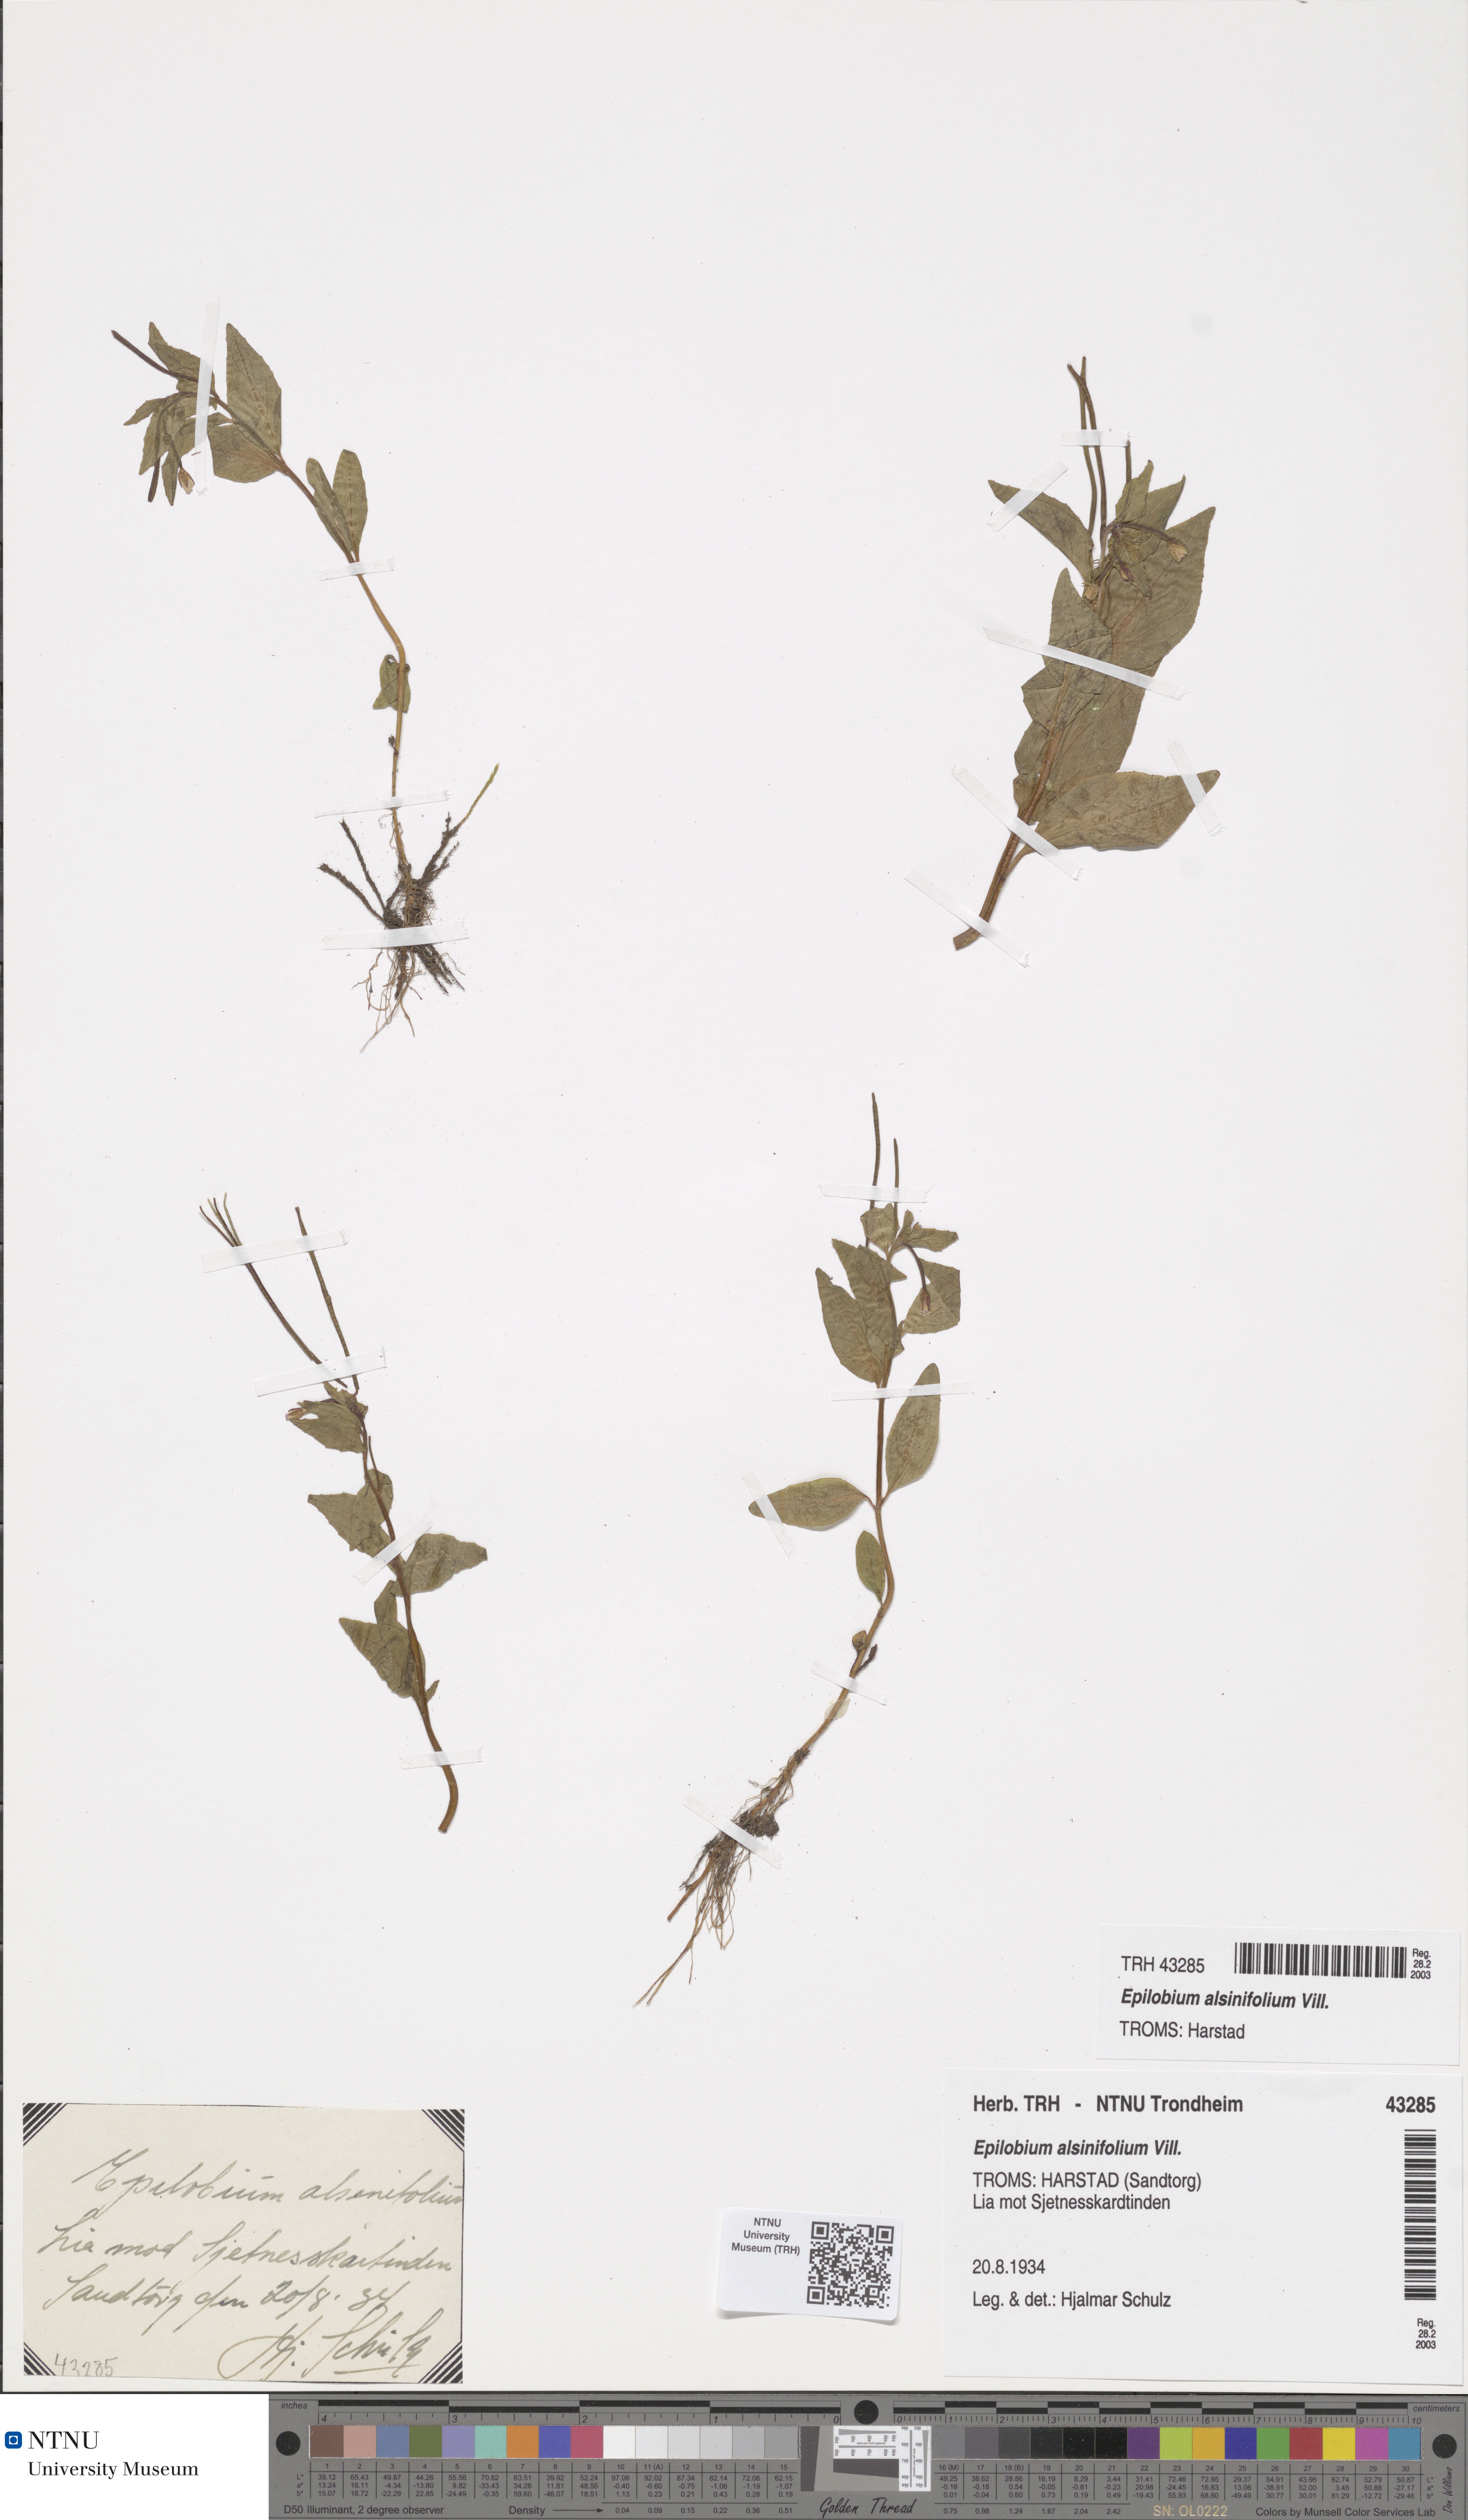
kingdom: Plantae
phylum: Tracheophyta
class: Magnoliopsida
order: Myrtales
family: Onagraceae
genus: Epilobium
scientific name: Epilobium alsinifolium
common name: Chickweed willowherb
